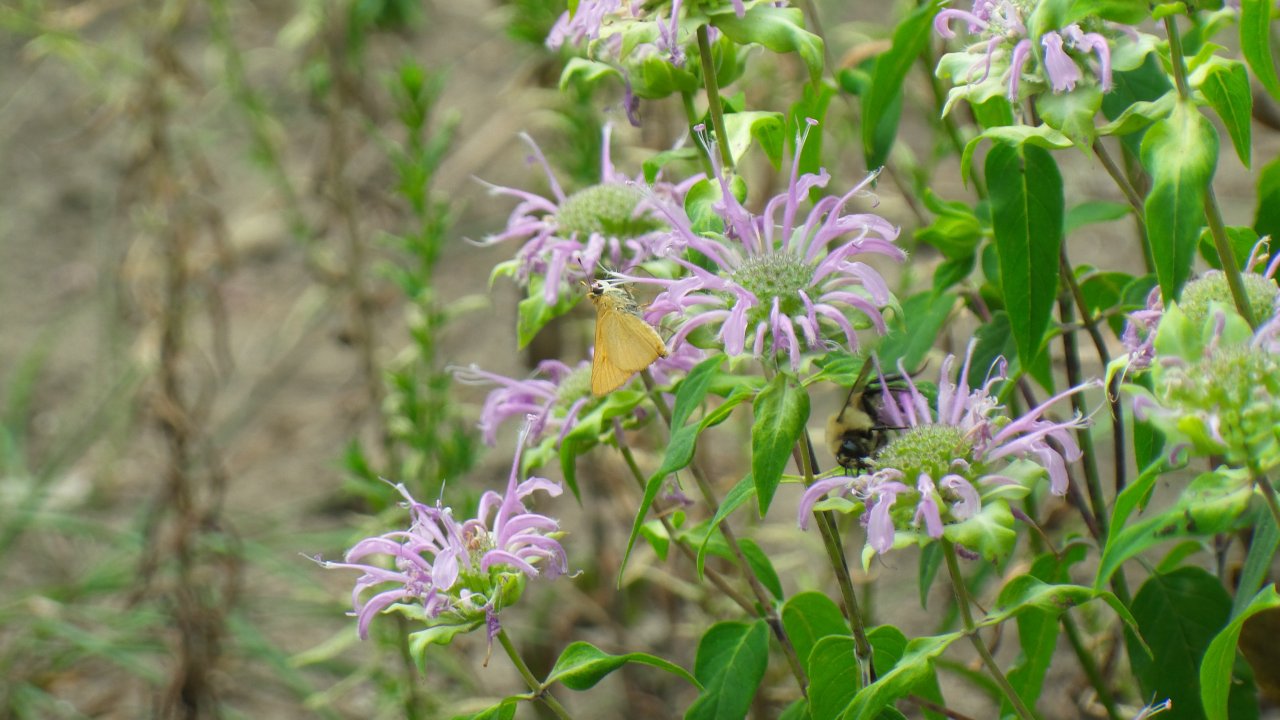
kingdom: Animalia
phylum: Arthropoda
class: Insecta
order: Lepidoptera
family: Hesperiidae
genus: Atrytone
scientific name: Atrytone delaware
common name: Delaware Skipper
